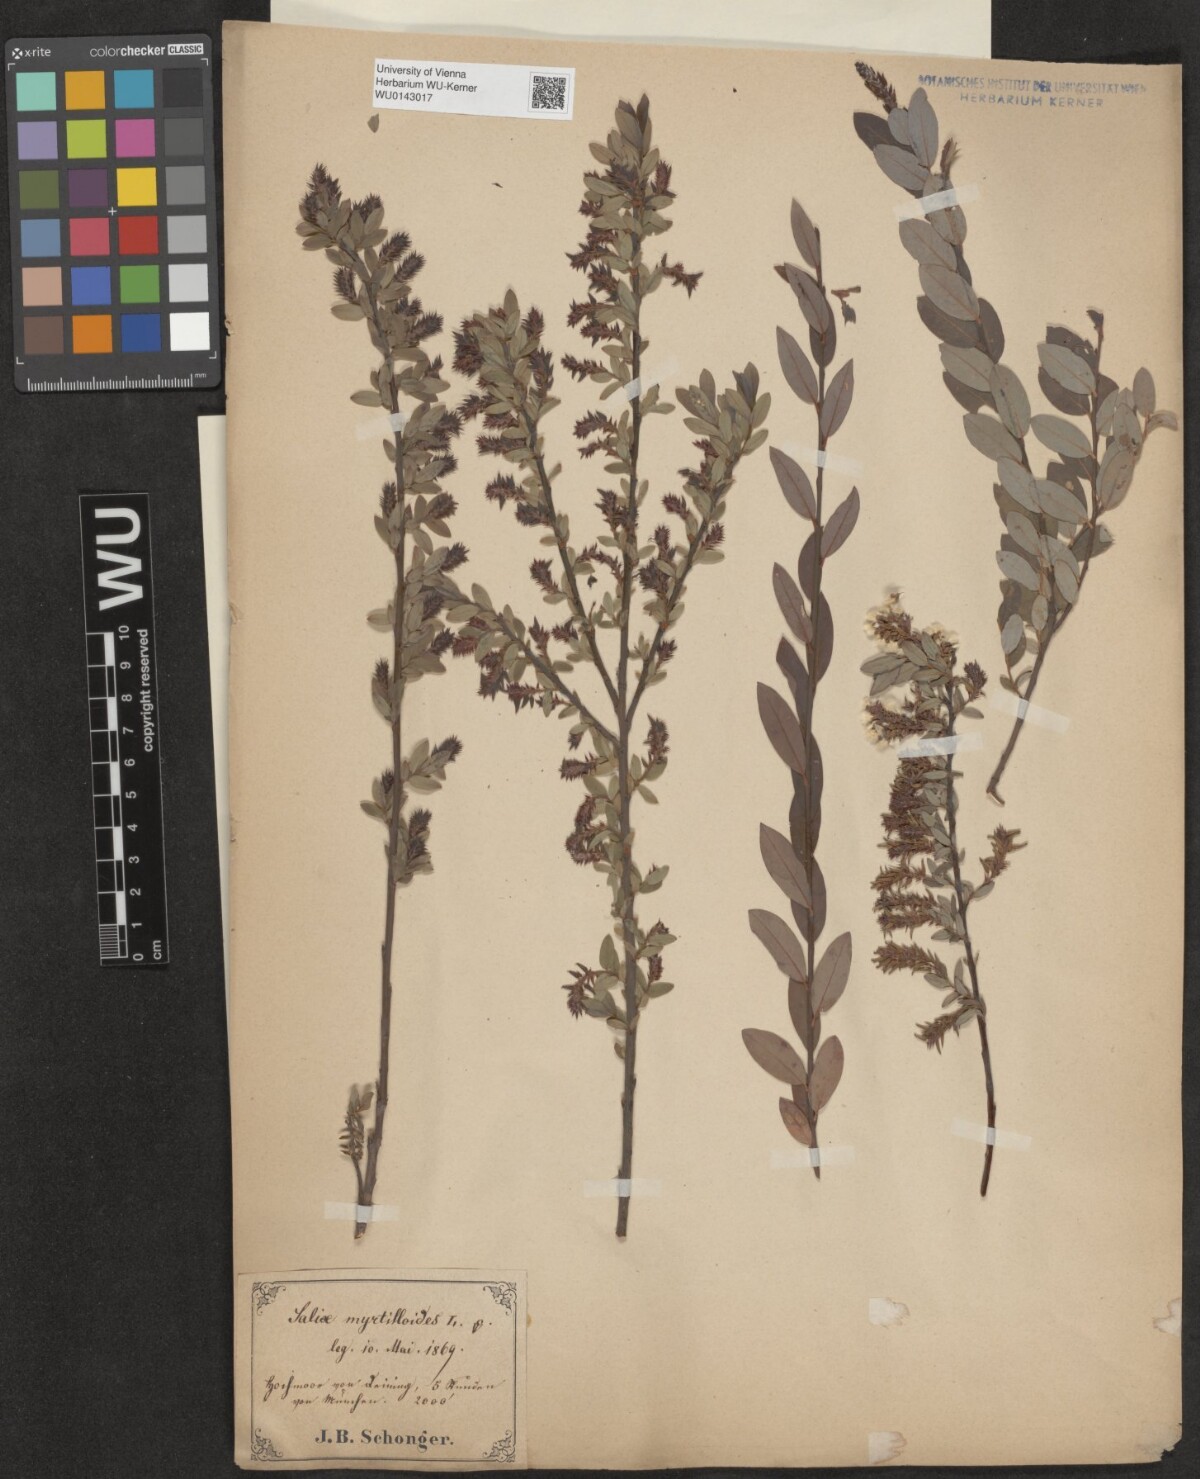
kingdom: Plantae
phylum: Tracheophyta
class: Magnoliopsida
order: Malpighiales
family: Salicaceae
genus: Salix
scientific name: Salix myrtilloides
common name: Myrtle-leaved willow
